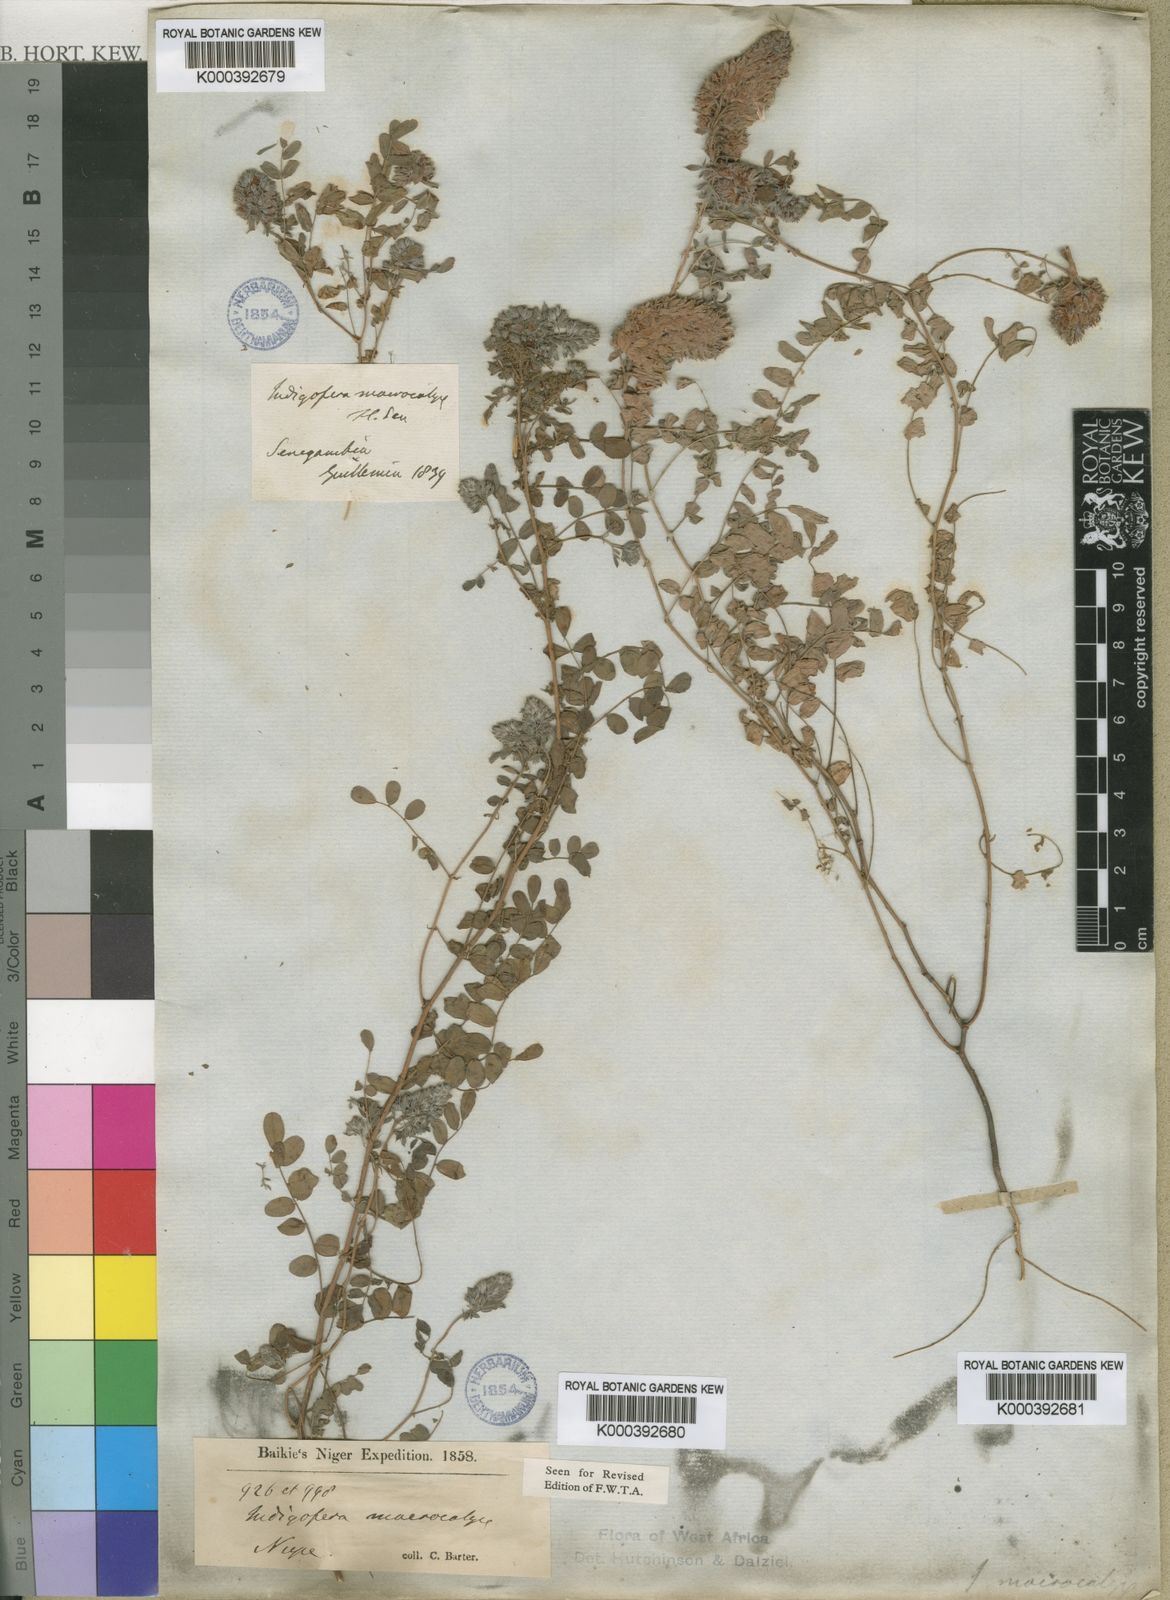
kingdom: Plantae
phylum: Tracheophyta
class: Magnoliopsida
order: Fabales
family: Fabaceae
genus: Indigofera
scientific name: Indigofera macrocalyx
